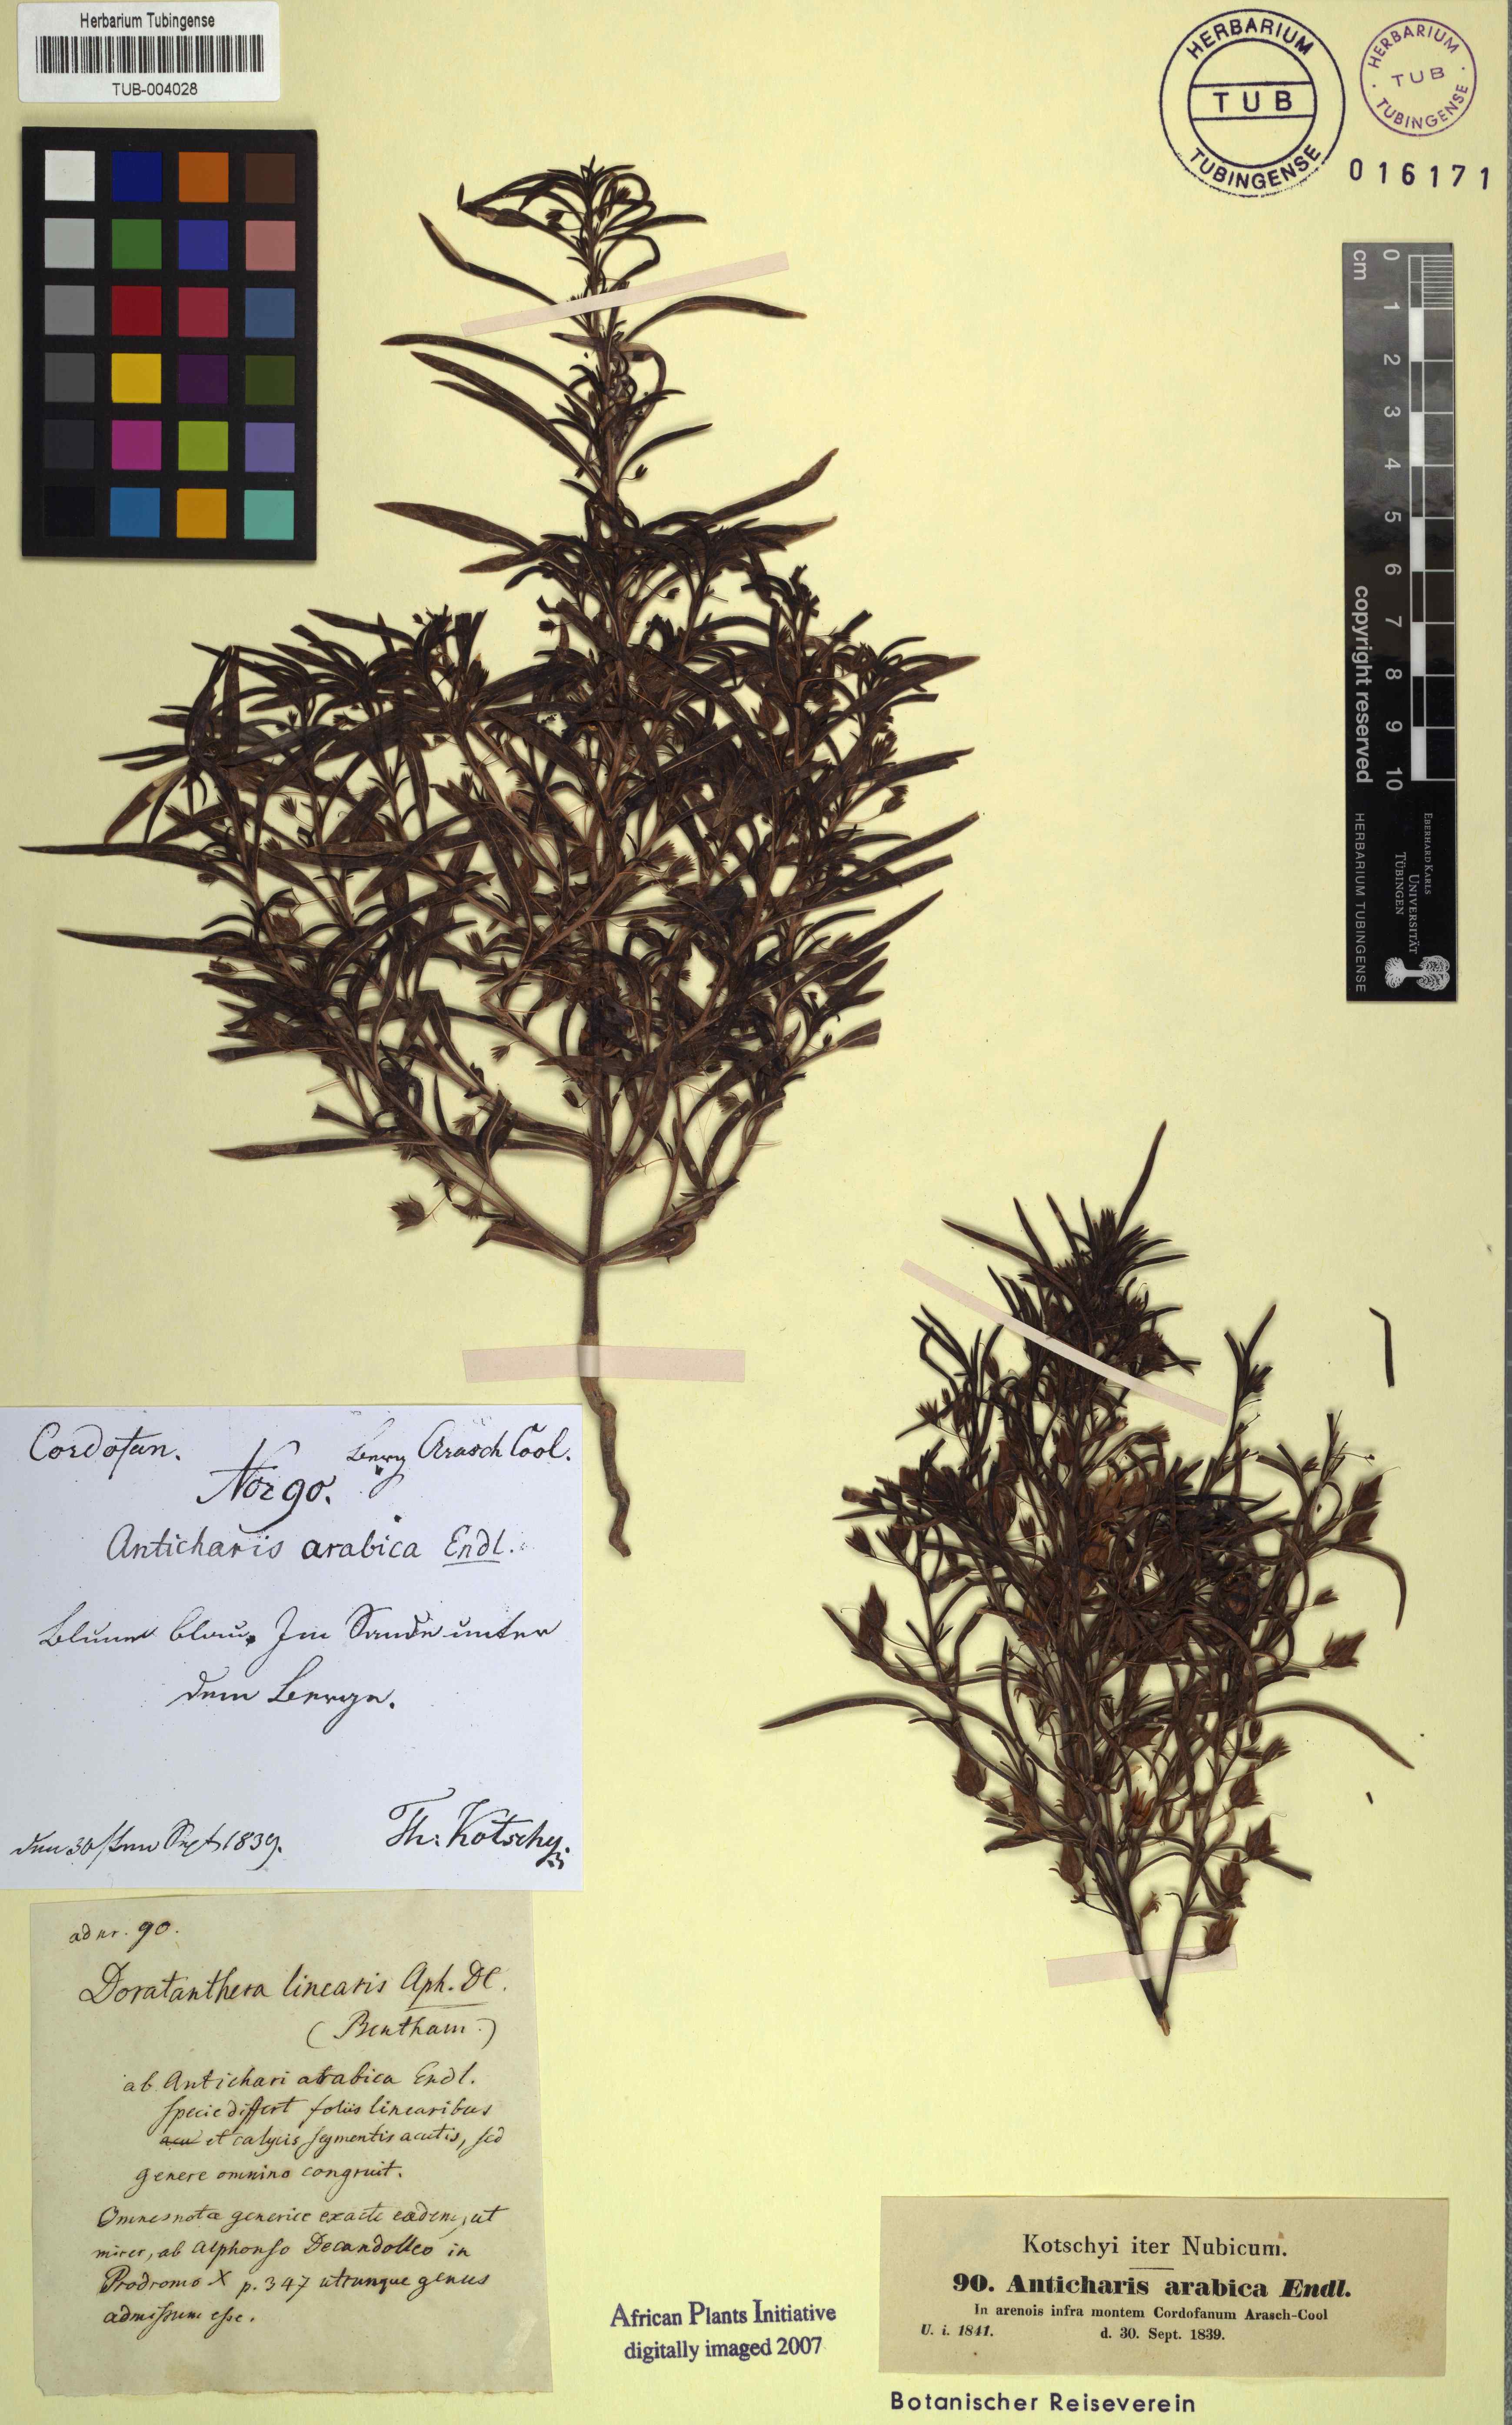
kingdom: Plantae
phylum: Tracheophyta
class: Magnoliopsida
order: Lamiales
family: Scrophulariaceae
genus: Anticharis
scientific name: Anticharis arabica
